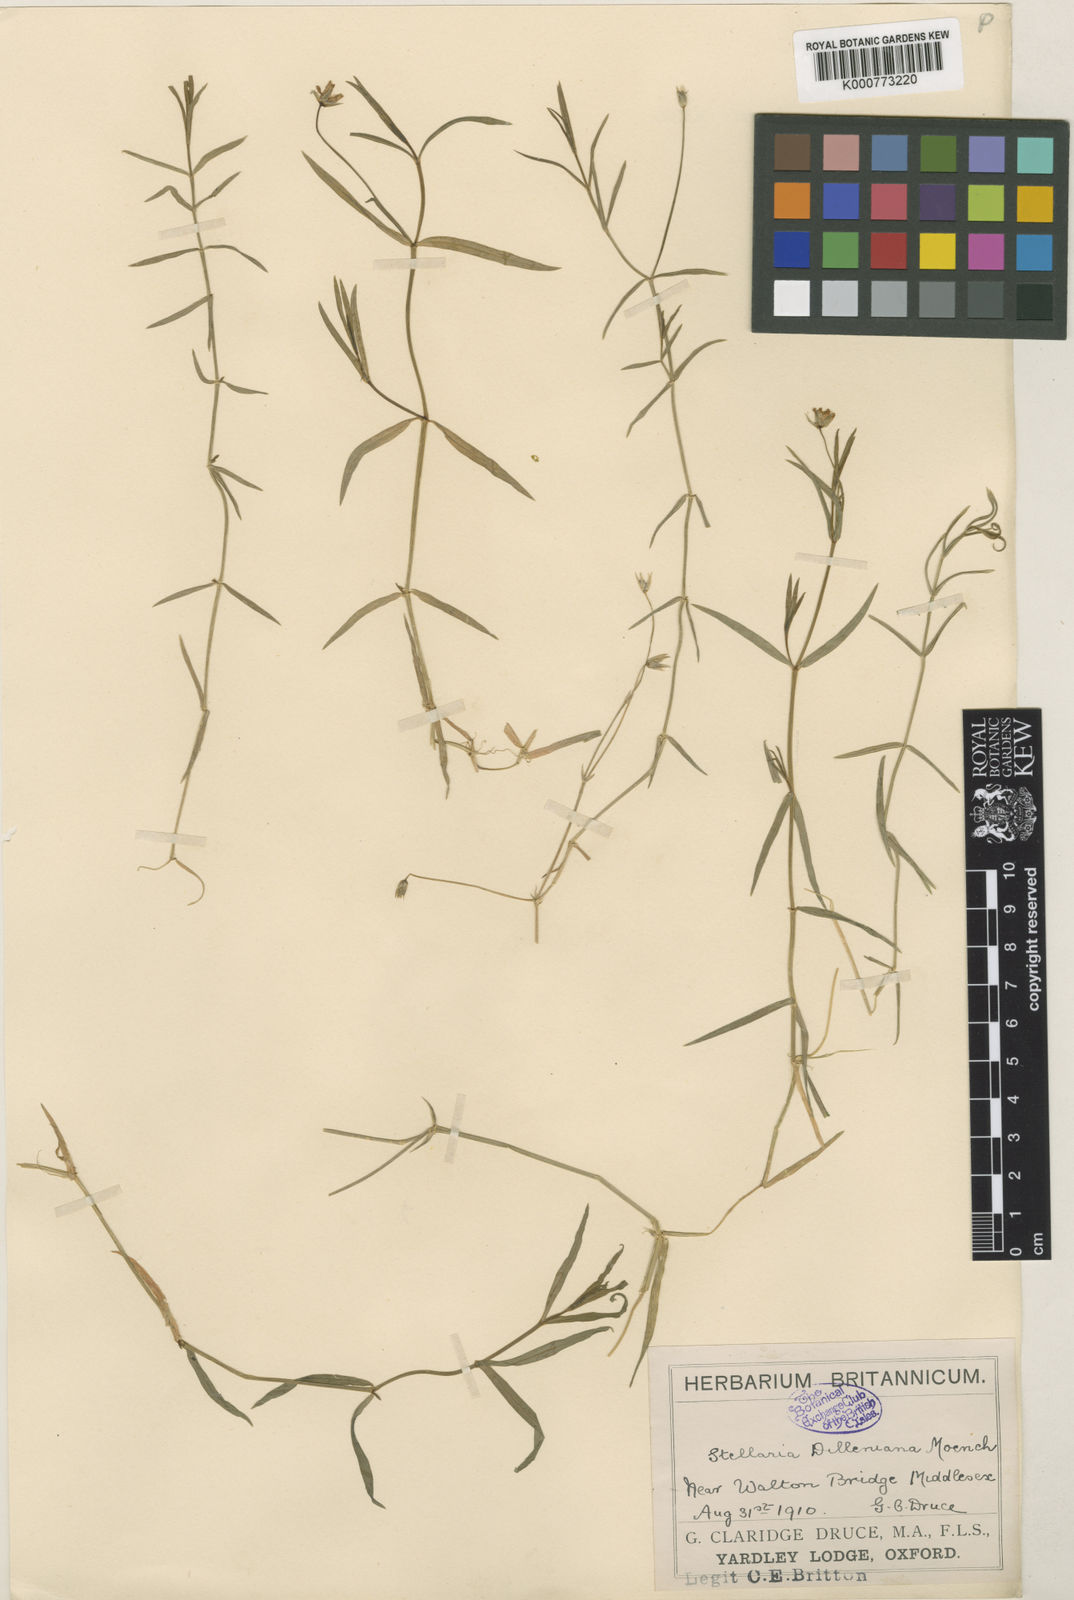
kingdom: Plantae
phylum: Tracheophyta
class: Magnoliopsida
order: Caryophyllales
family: Caryophyllaceae
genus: Stellaria
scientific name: Stellaria
